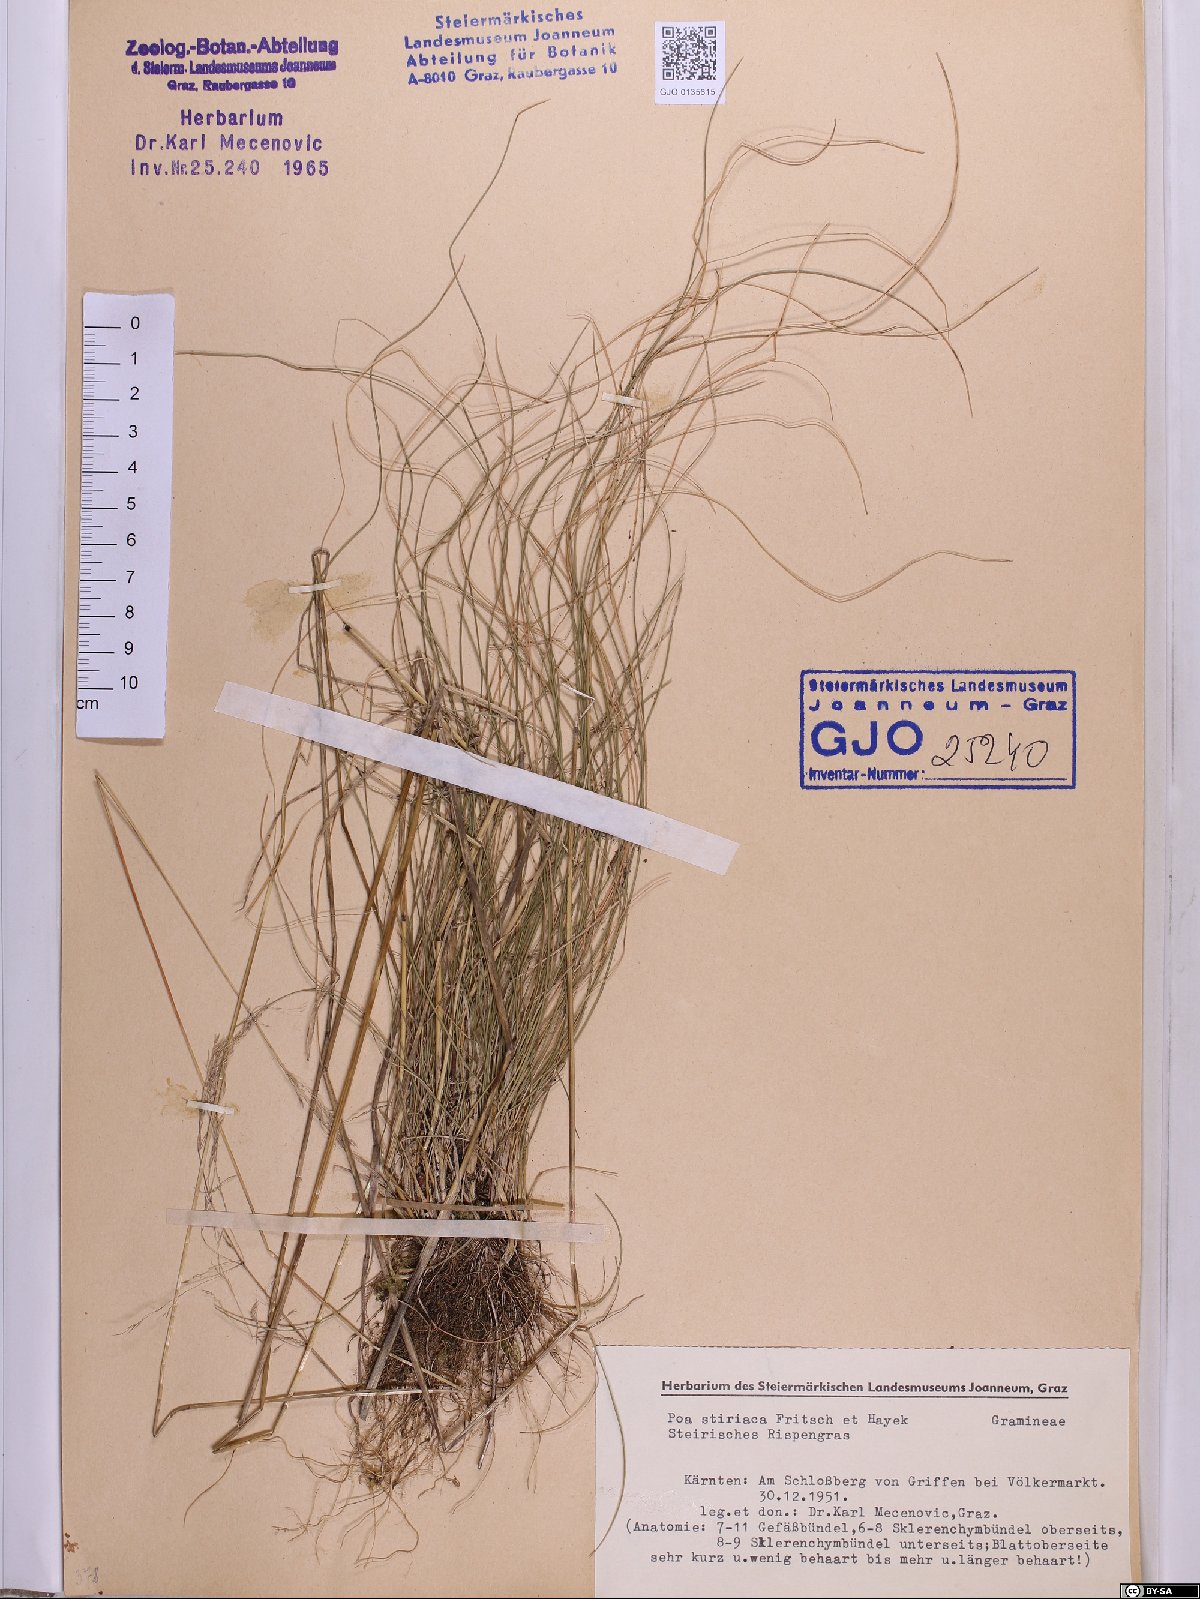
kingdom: Plantae
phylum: Tracheophyta
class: Liliopsida
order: Poales
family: Poaceae
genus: Poa
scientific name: Poa stiriaca
